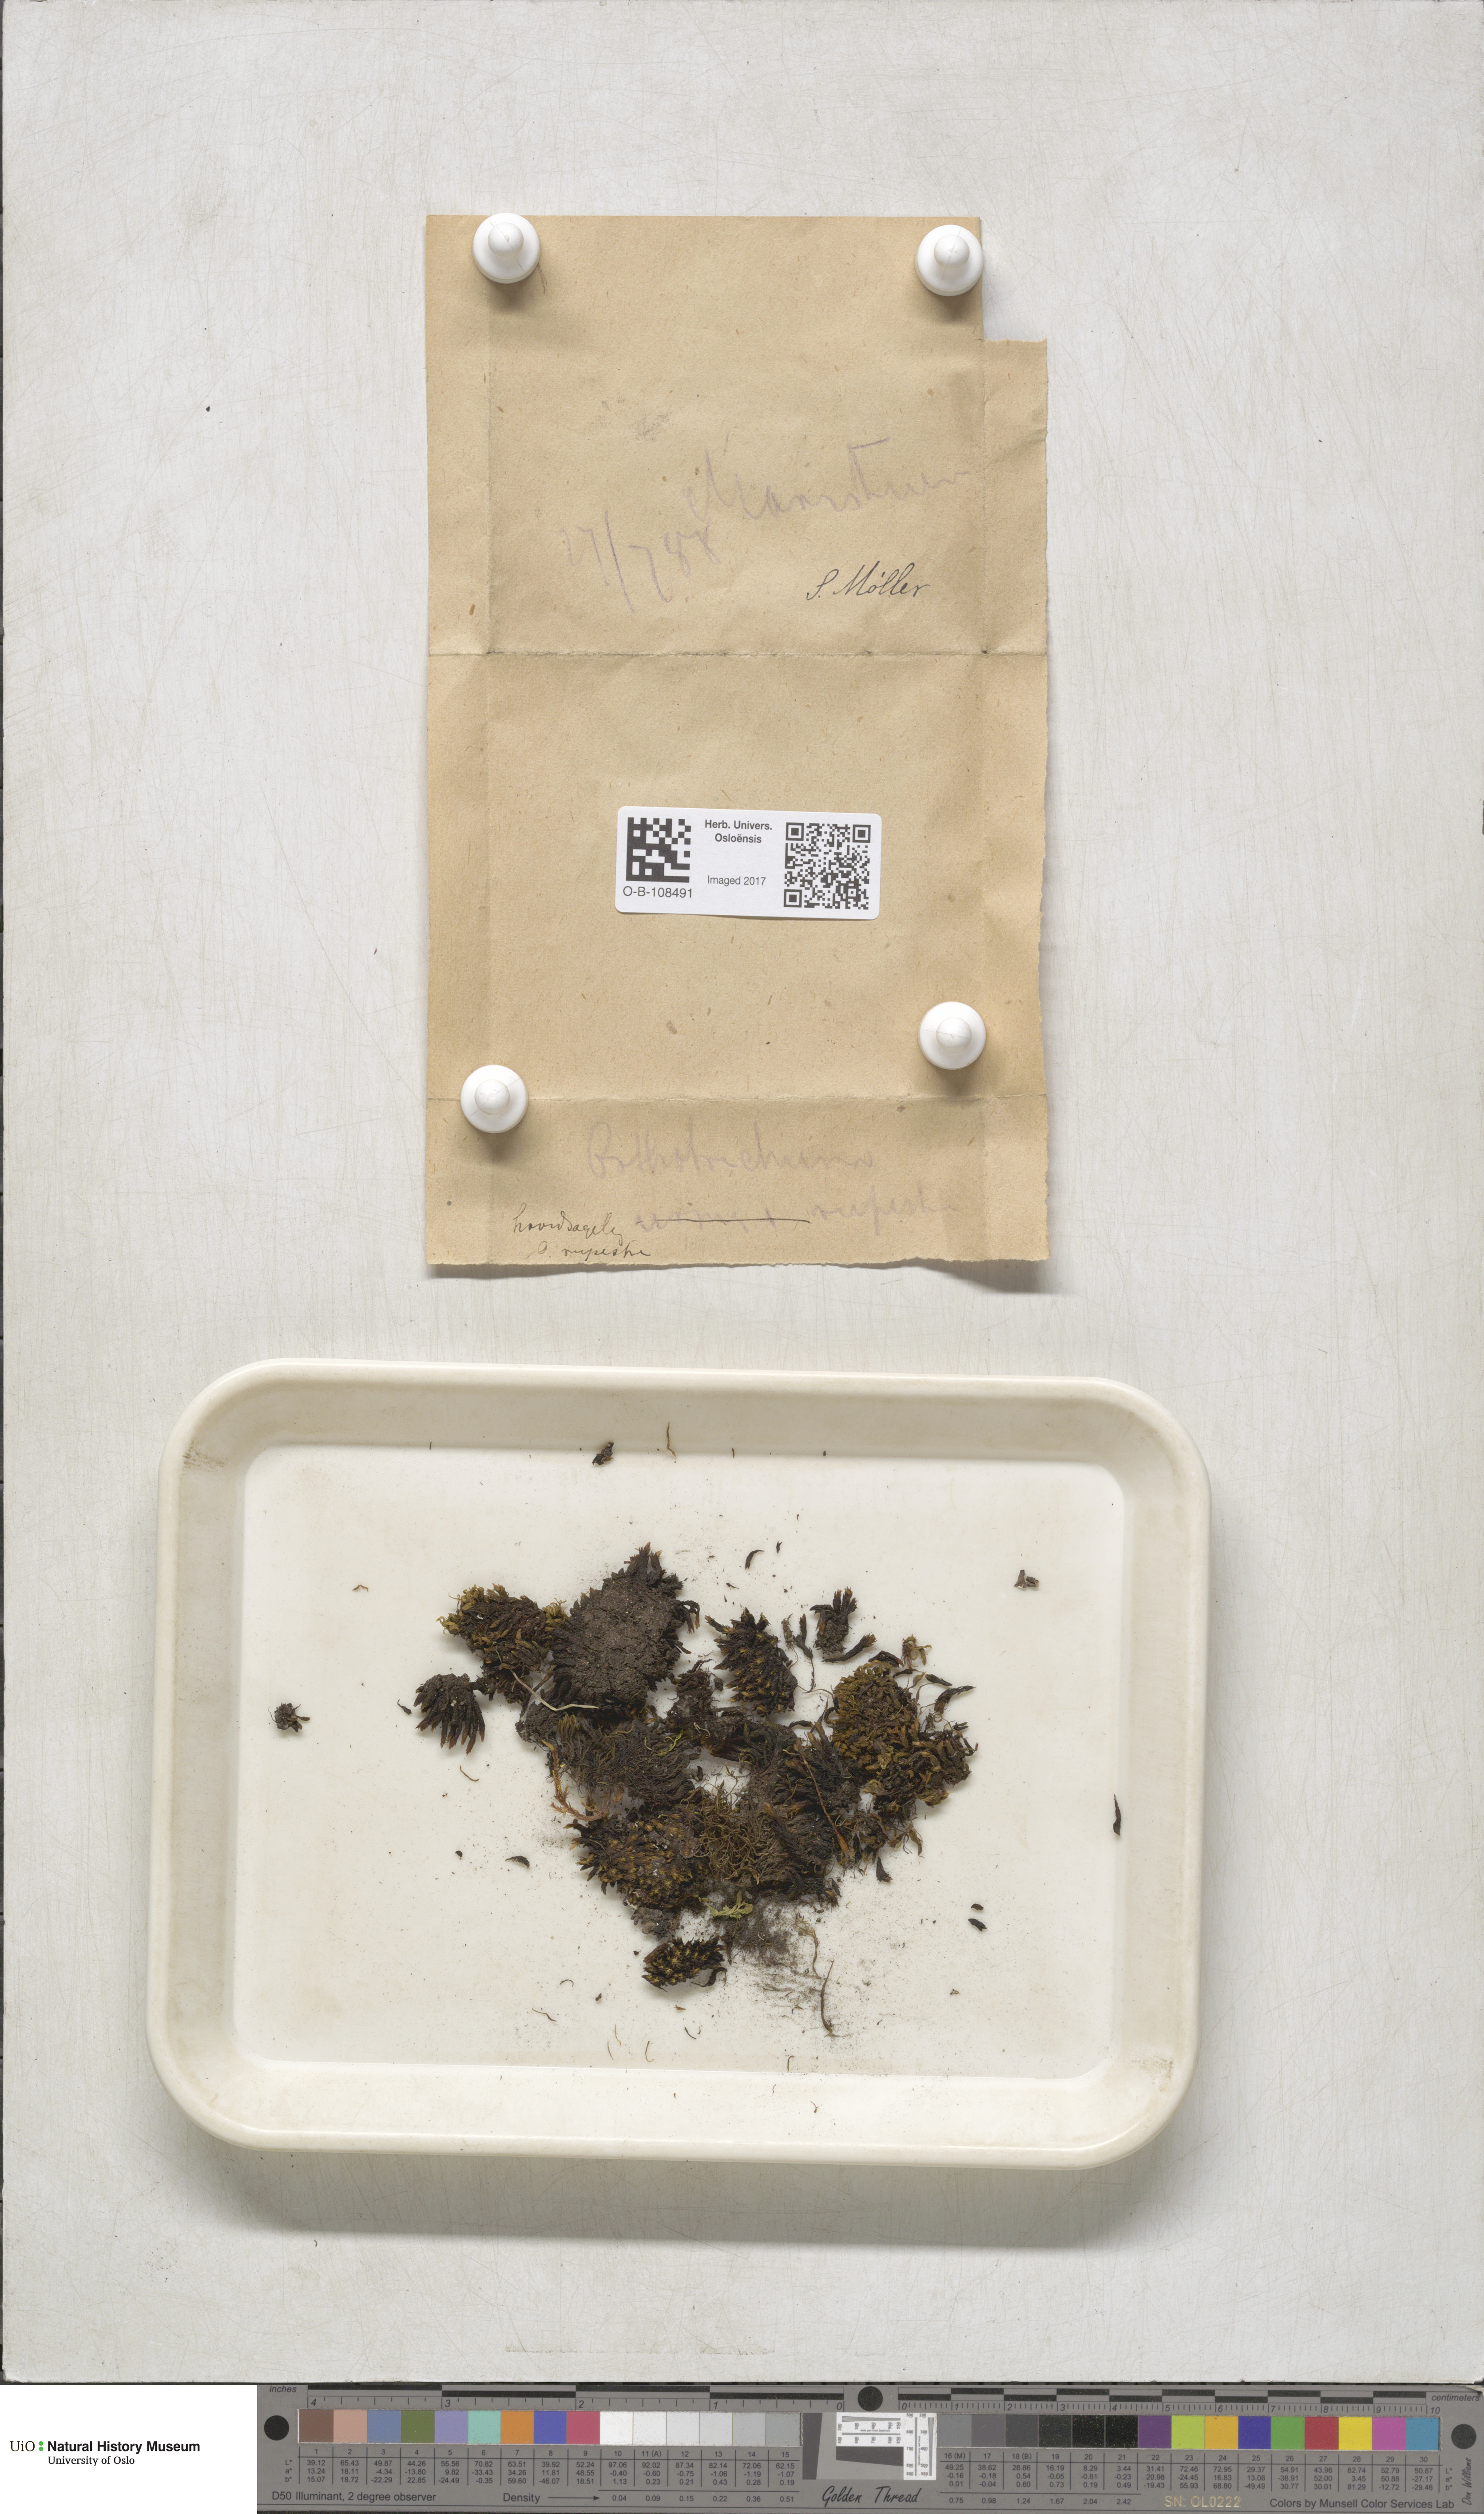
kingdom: Plantae
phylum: Bryophyta
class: Bryopsida
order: Orthotrichales
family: Orthotrichaceae
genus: Lewinskya
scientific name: Lewinskya rupestris
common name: Rock bristle-moss
